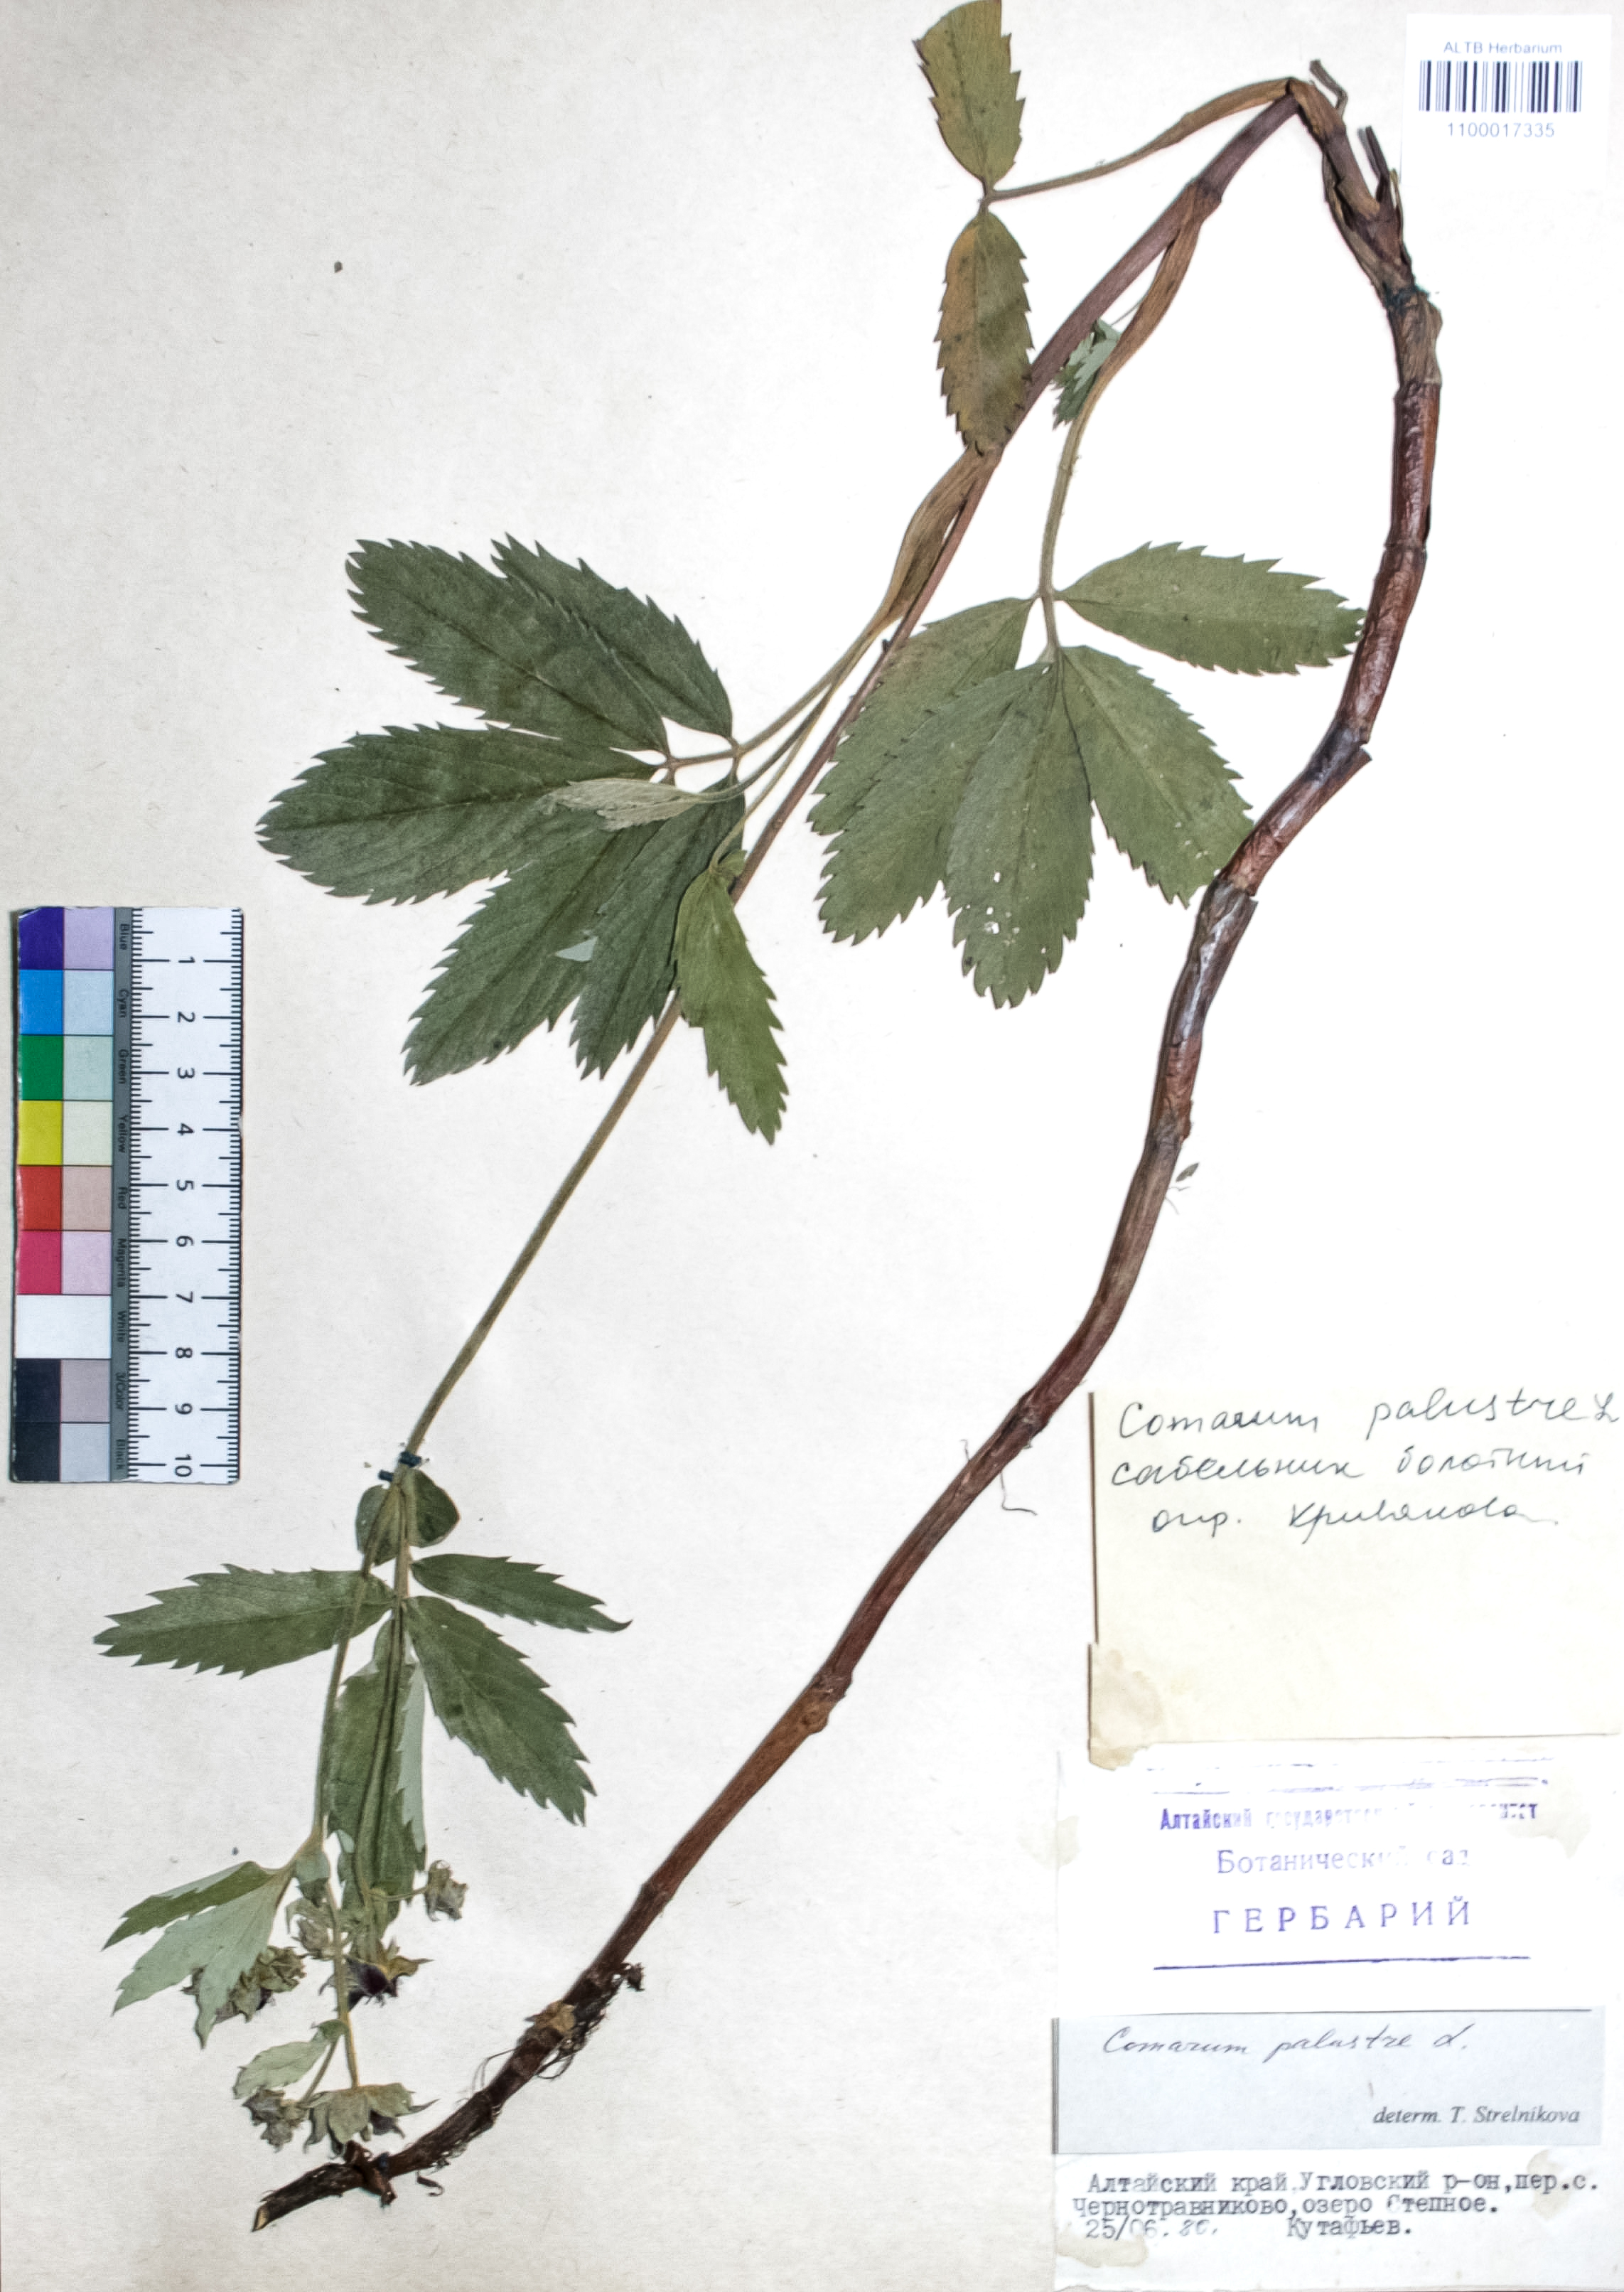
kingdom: Plantae
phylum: Tracheophyta
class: Magnoliopsida
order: Rosales
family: Rosaceae
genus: Comarum
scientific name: Comarum palustre
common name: Marsh cinquefoil
